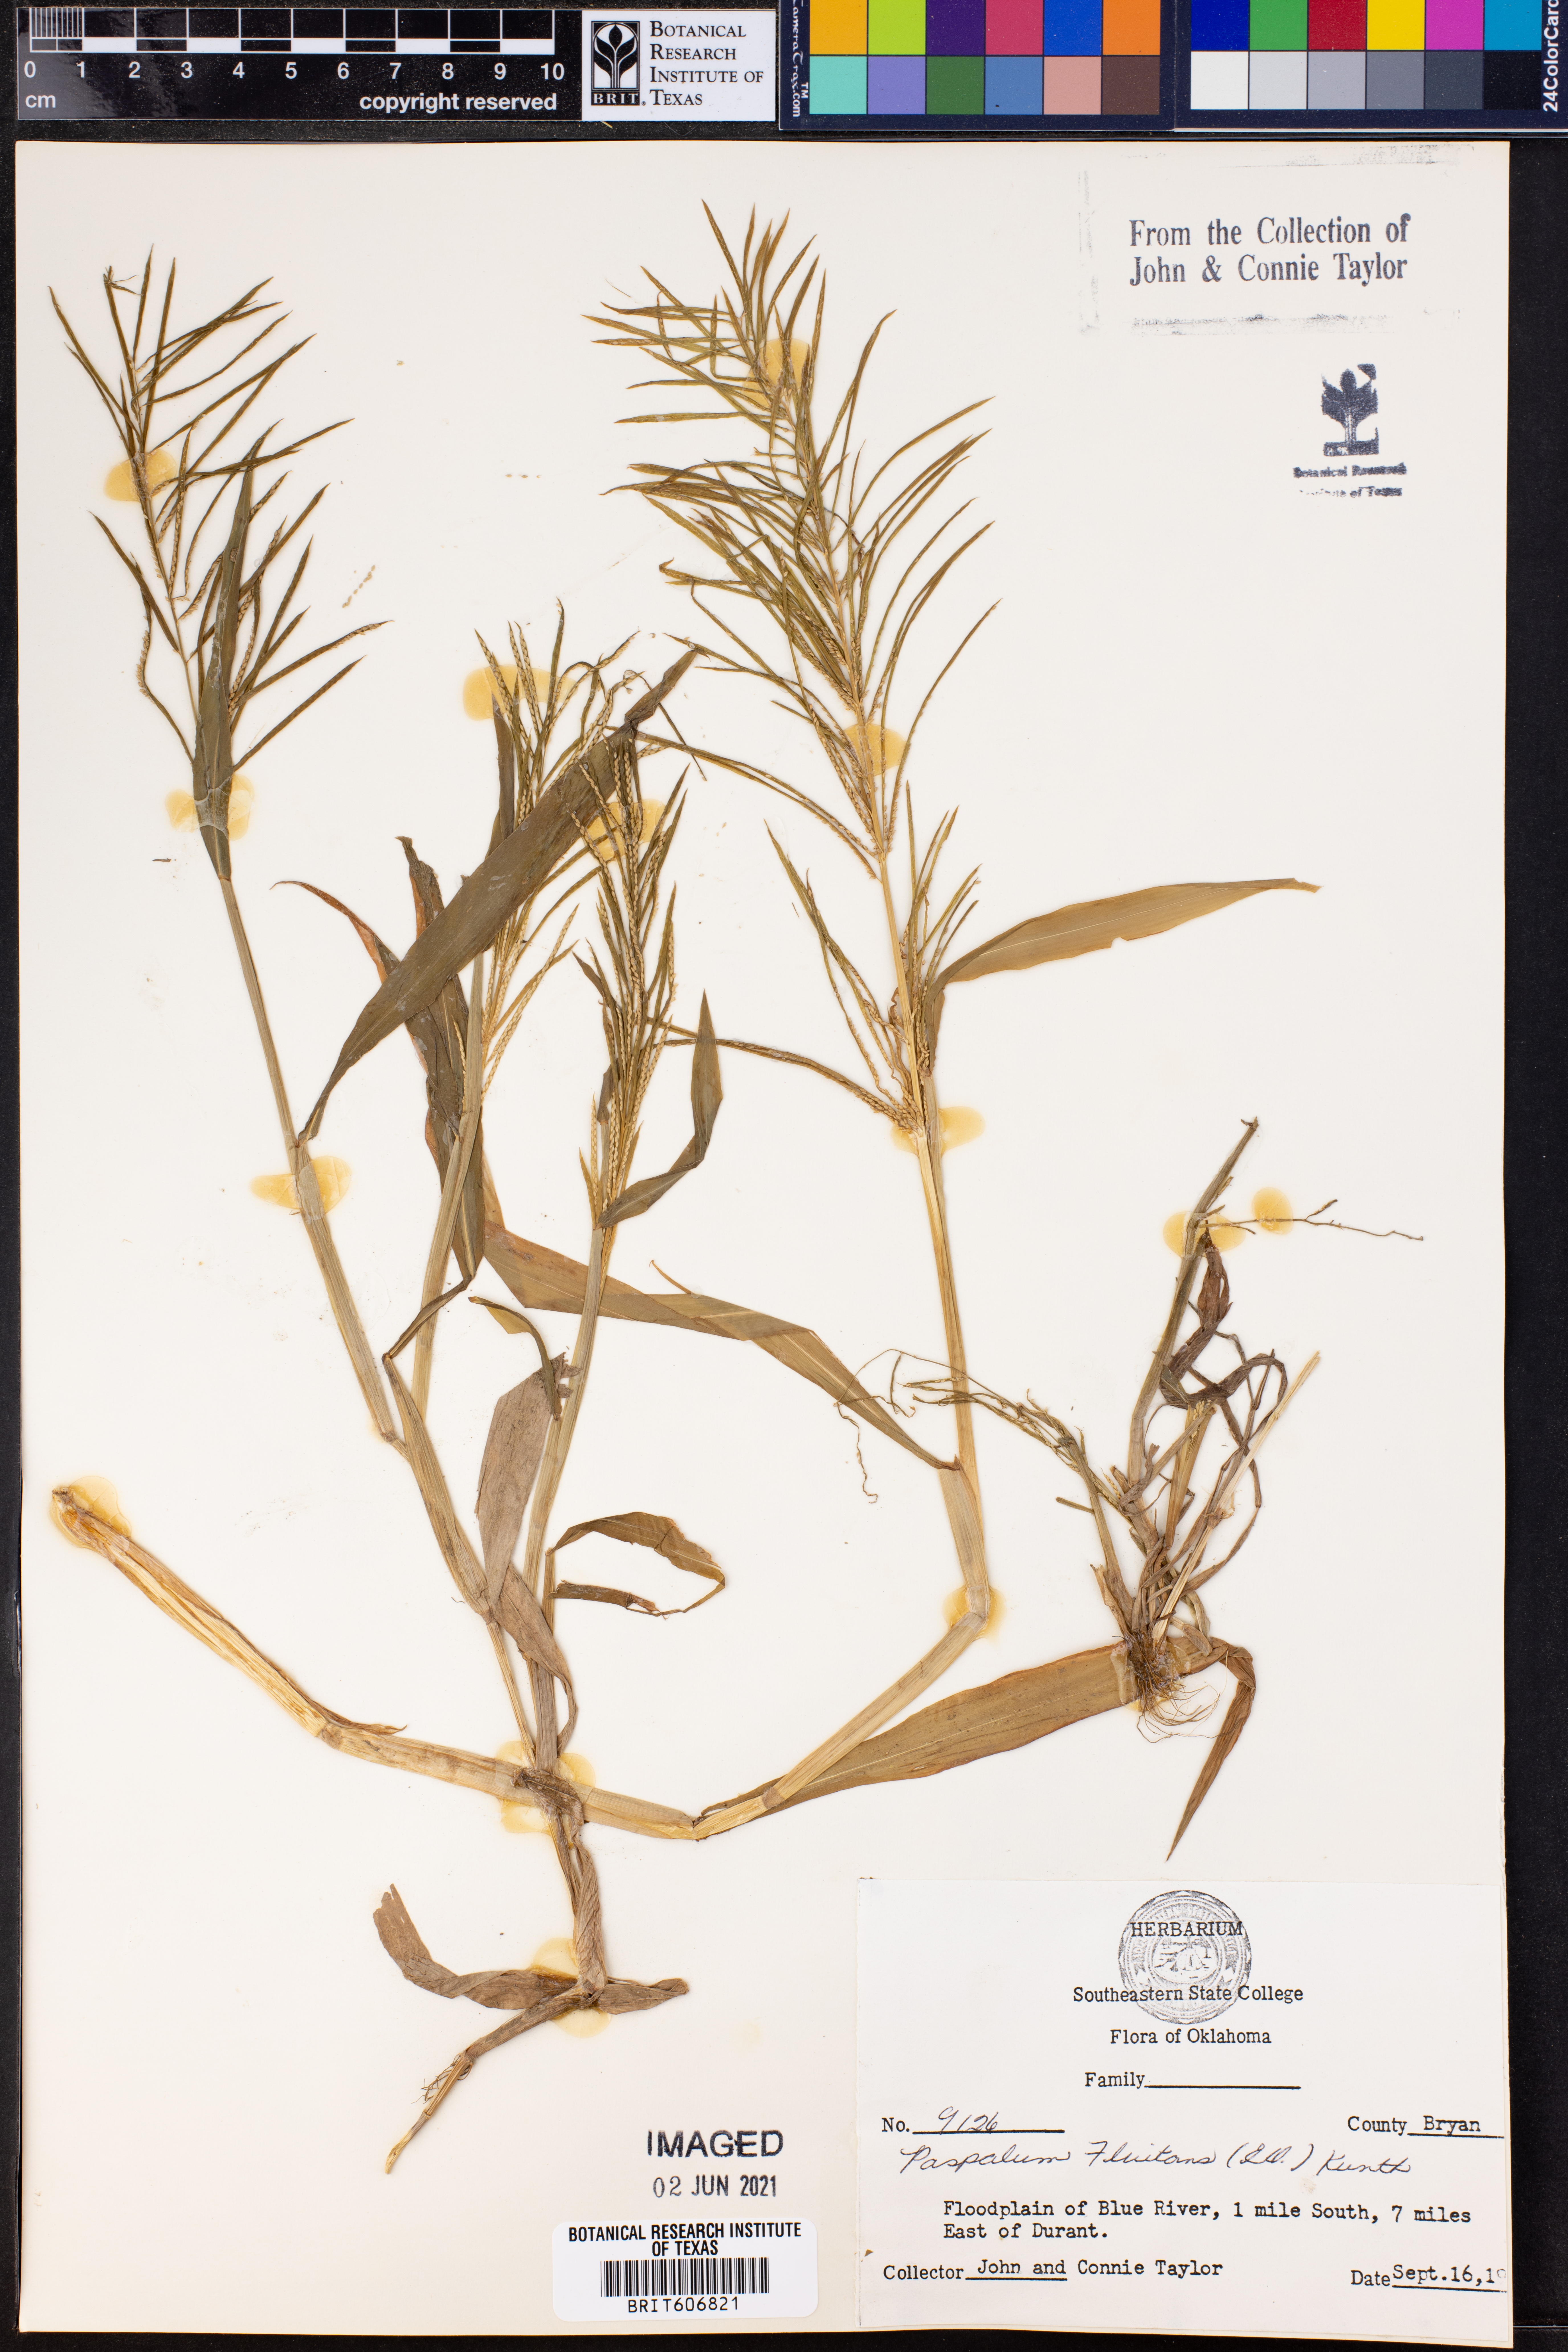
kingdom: Plantae
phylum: Tracheophyta
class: Liliopsida
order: Poales
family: Poaceae
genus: Paspalum
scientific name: Paspalum repens
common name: Water paspalum
